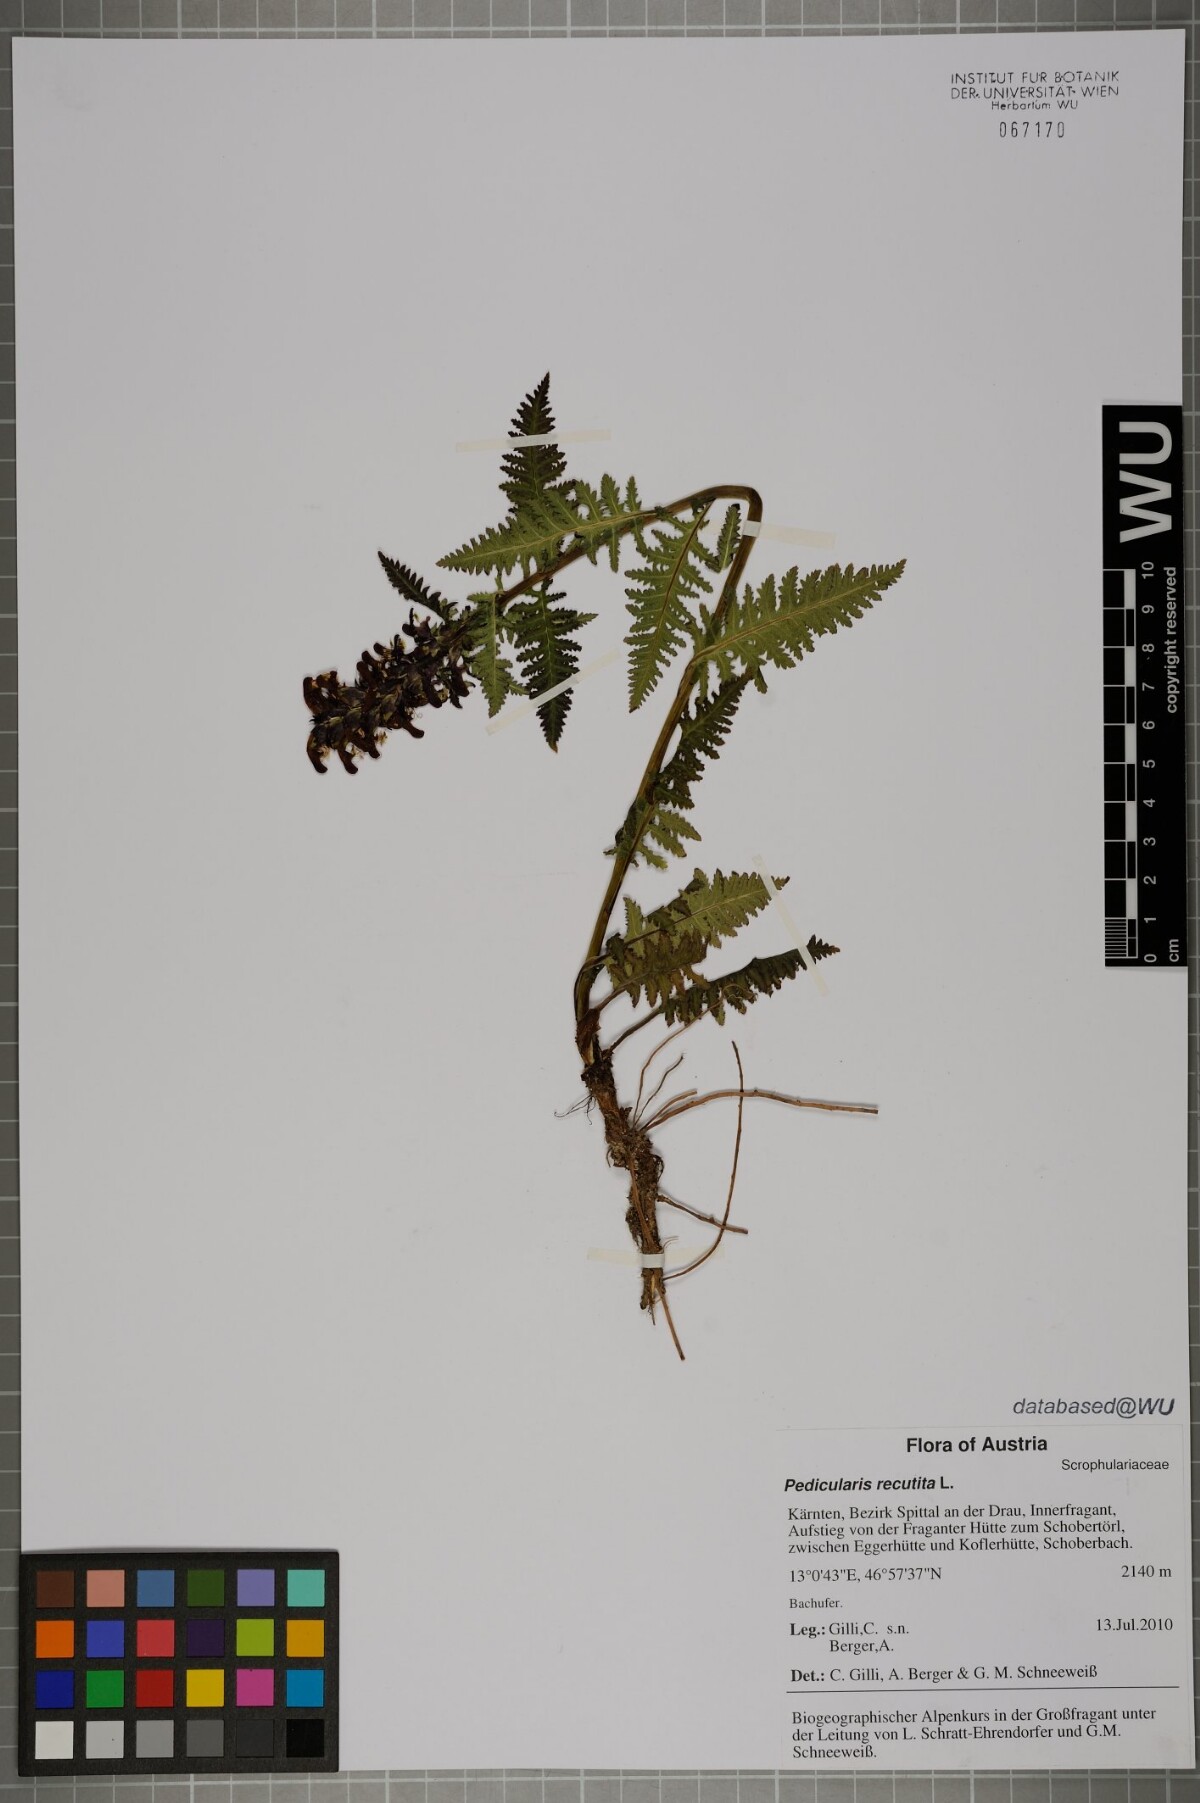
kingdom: Plantae
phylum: Tracheophyta
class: Magnoliopsida
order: Lamiales
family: Orobanchaceae
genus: Pedicularis
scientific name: Pedicularis recutita
